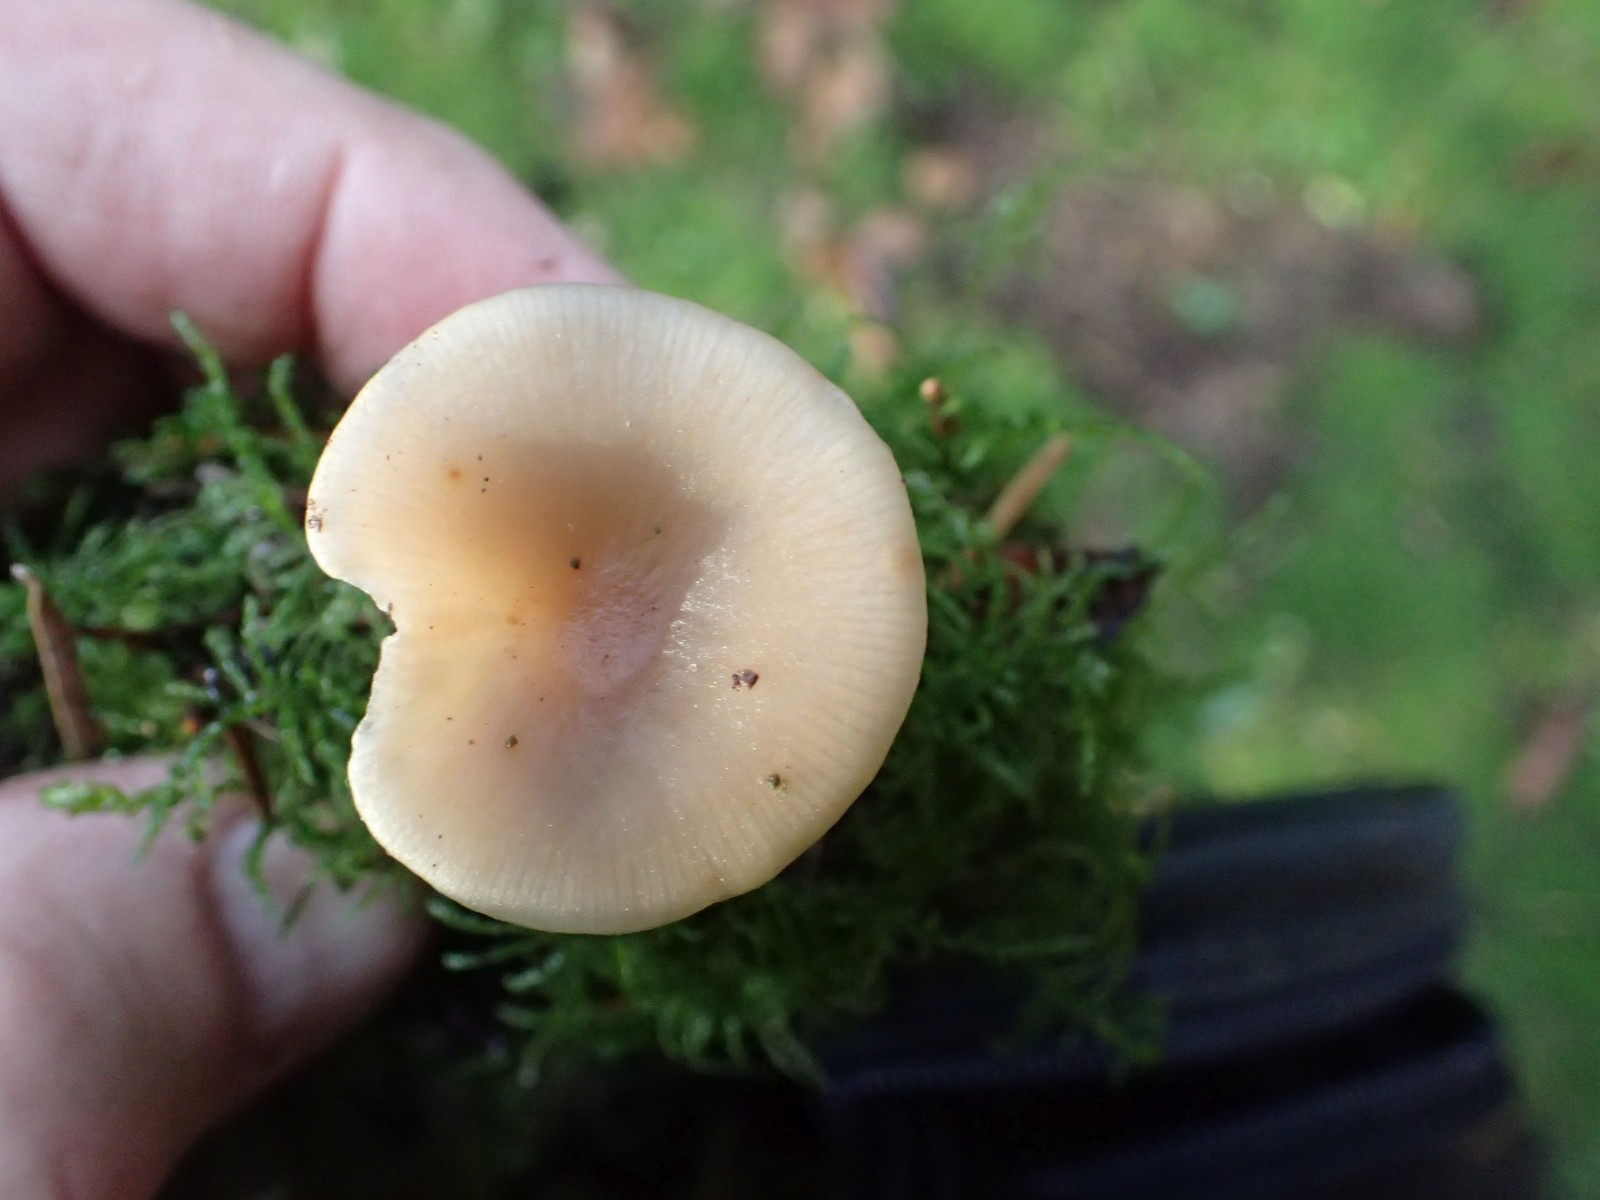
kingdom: Fungi
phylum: Basidiomycota
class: Agaricomycetes
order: Agaricales
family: Tricholomataceae
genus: Clitocybe
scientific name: Clitocybe
